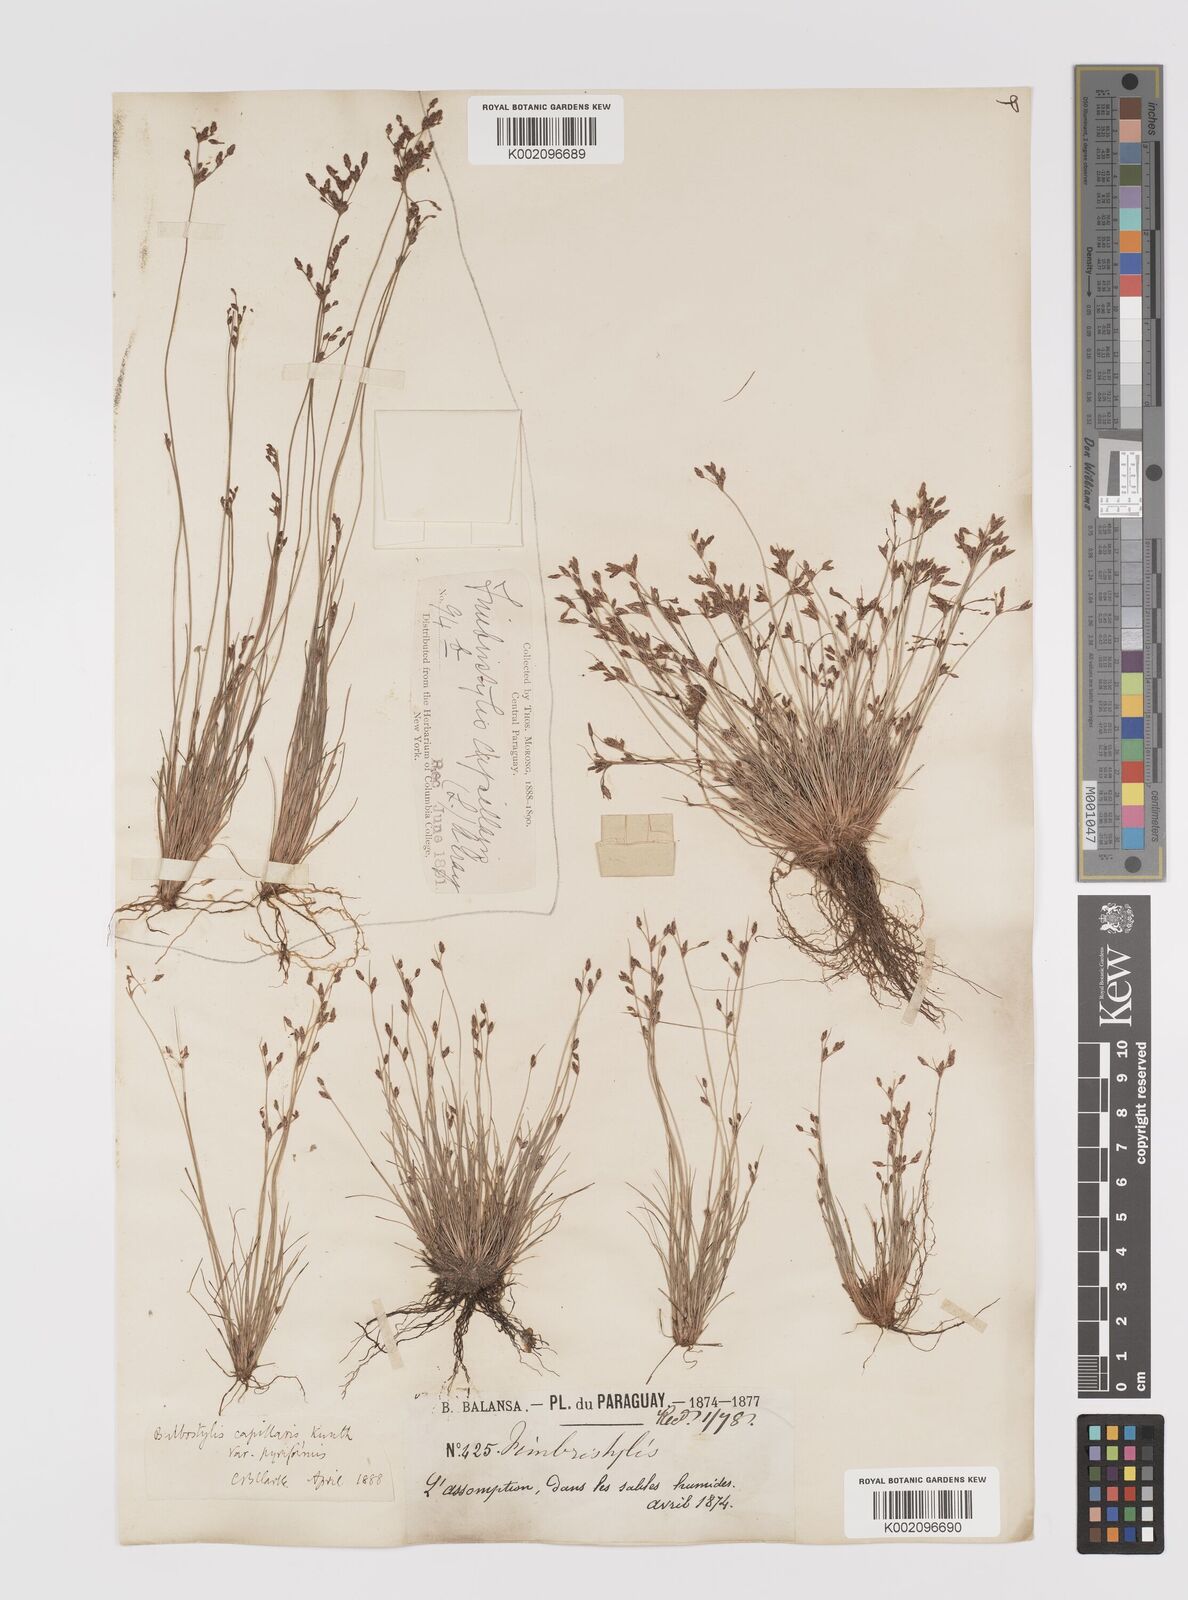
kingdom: Plantae
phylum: Tracheophyta
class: Liliopsida
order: Poales
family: Cyperaceae
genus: Bulbostylis
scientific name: Bulbostylis capillaris
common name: Densetuft hairsedge
